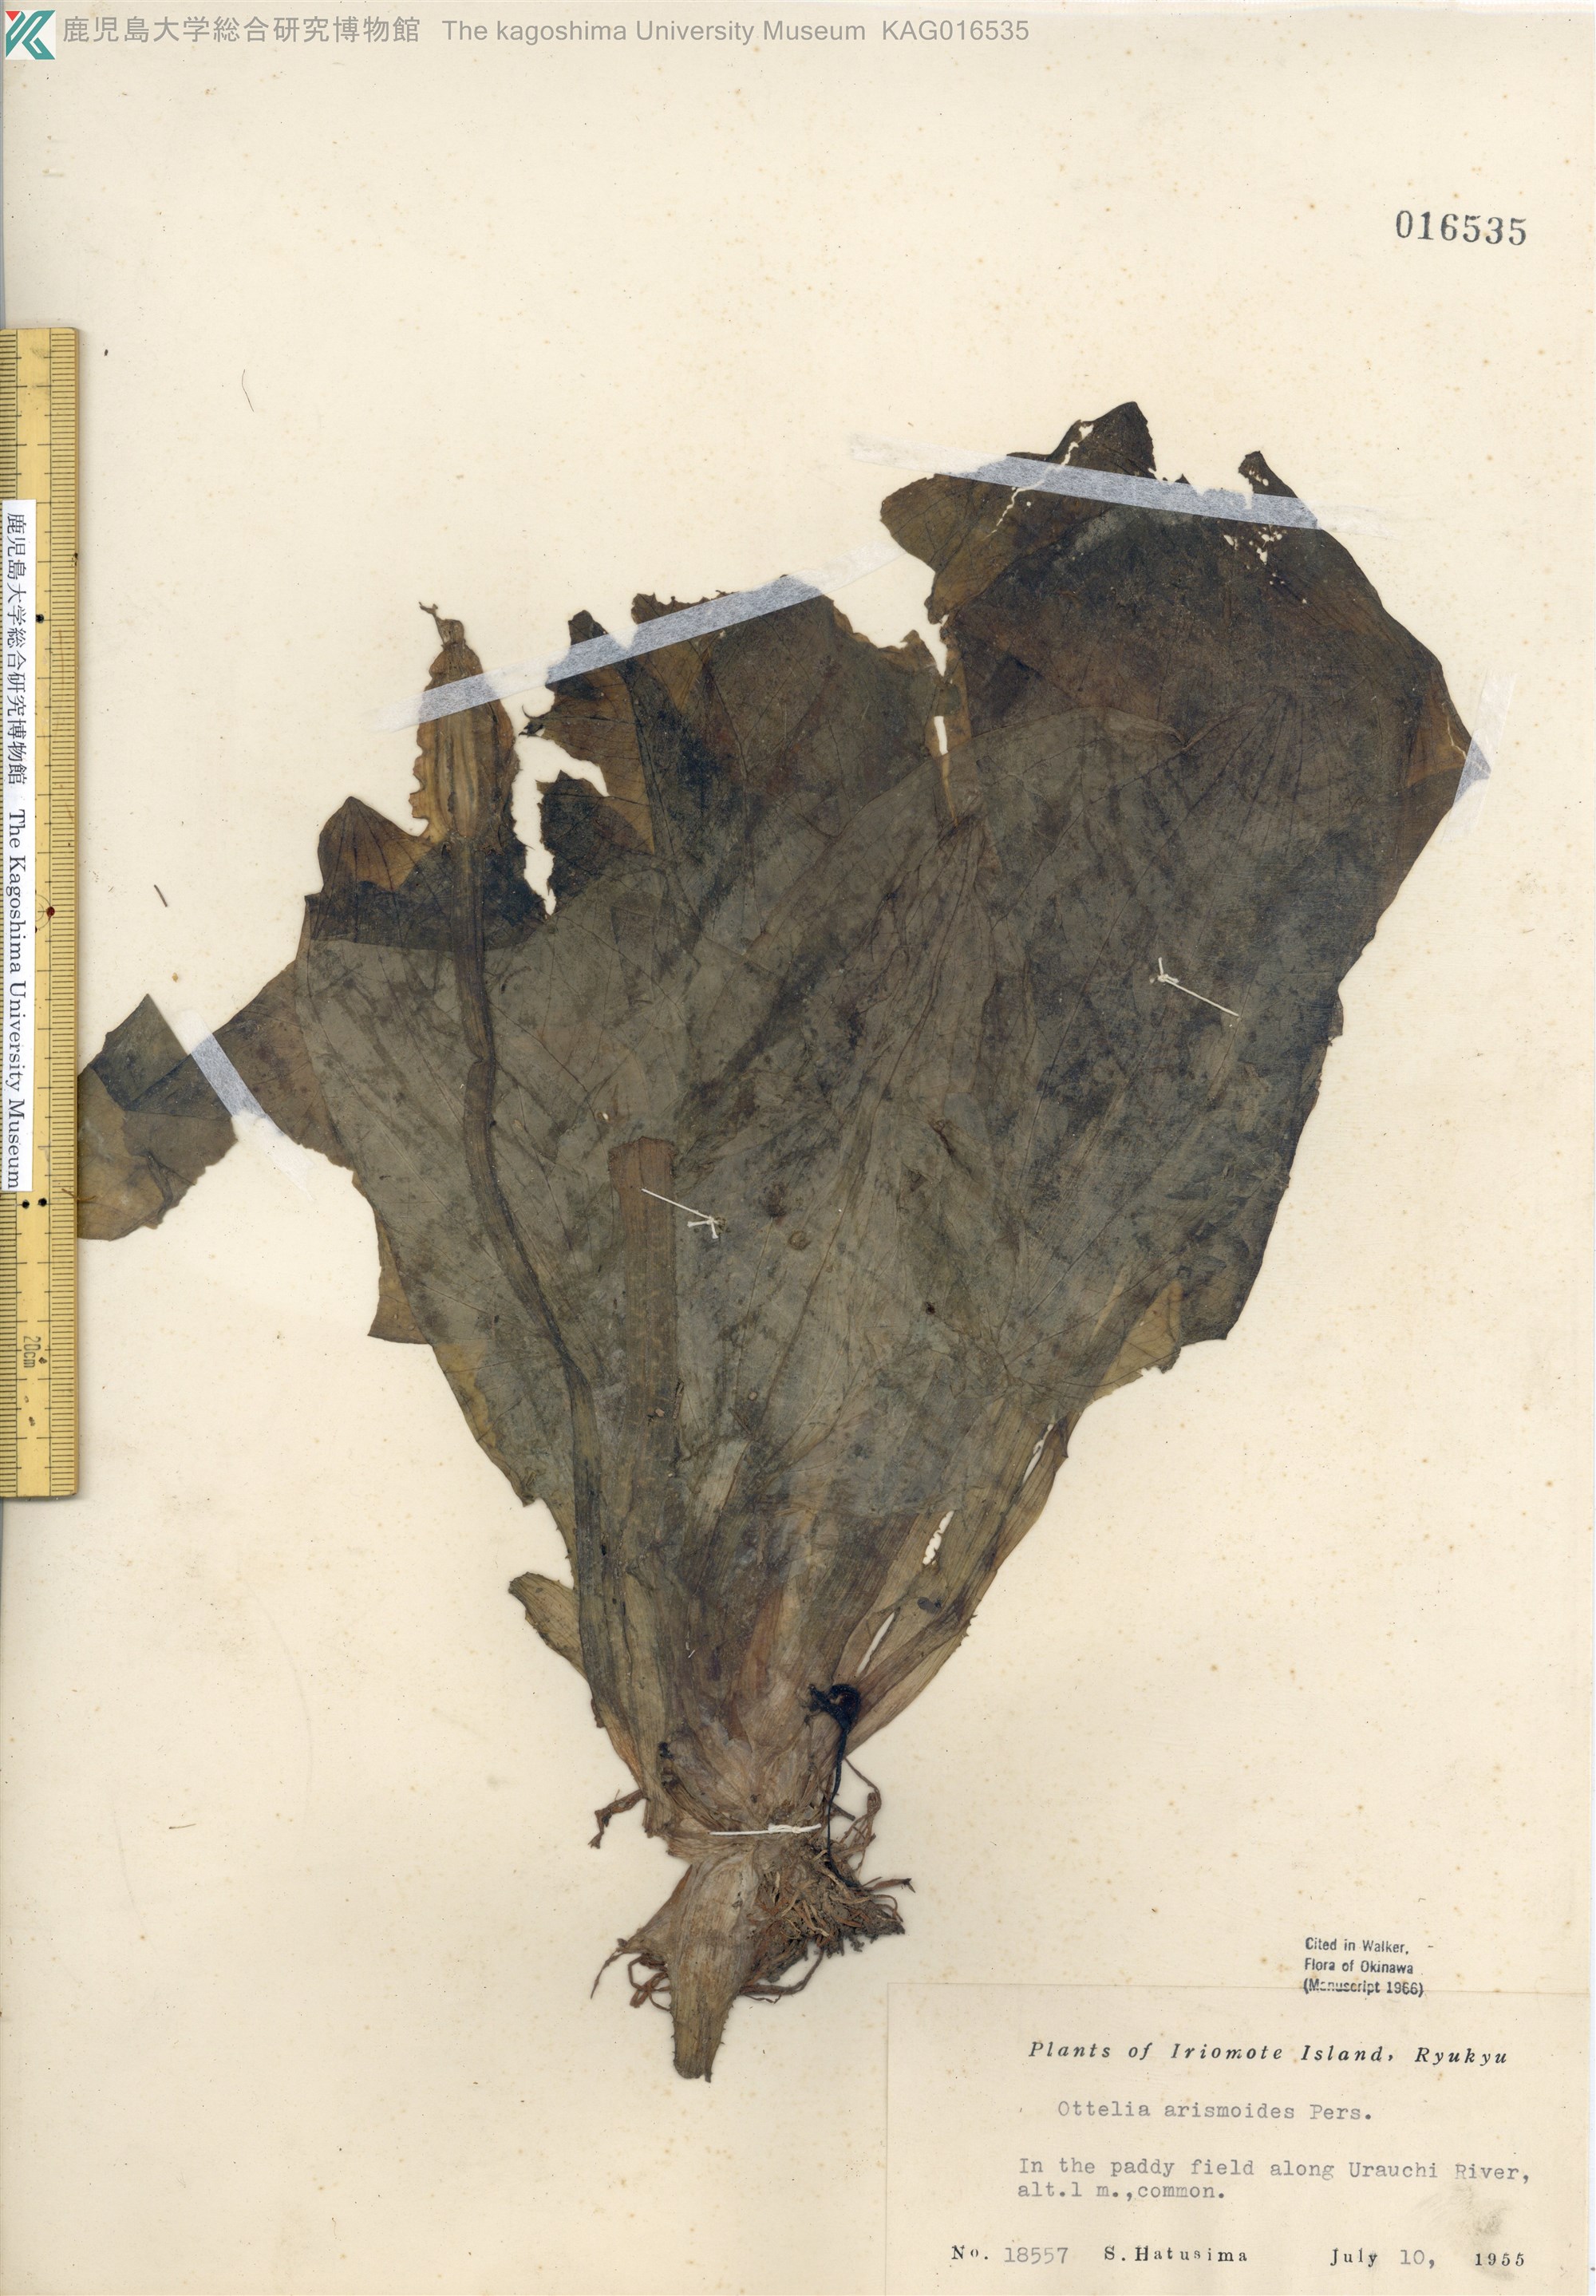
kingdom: Plantae
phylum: Tracheophyta
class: Liliopsida
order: Alismatales
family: Hydrocharitaceae
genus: Ottelia
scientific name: Ottelia alismoides
